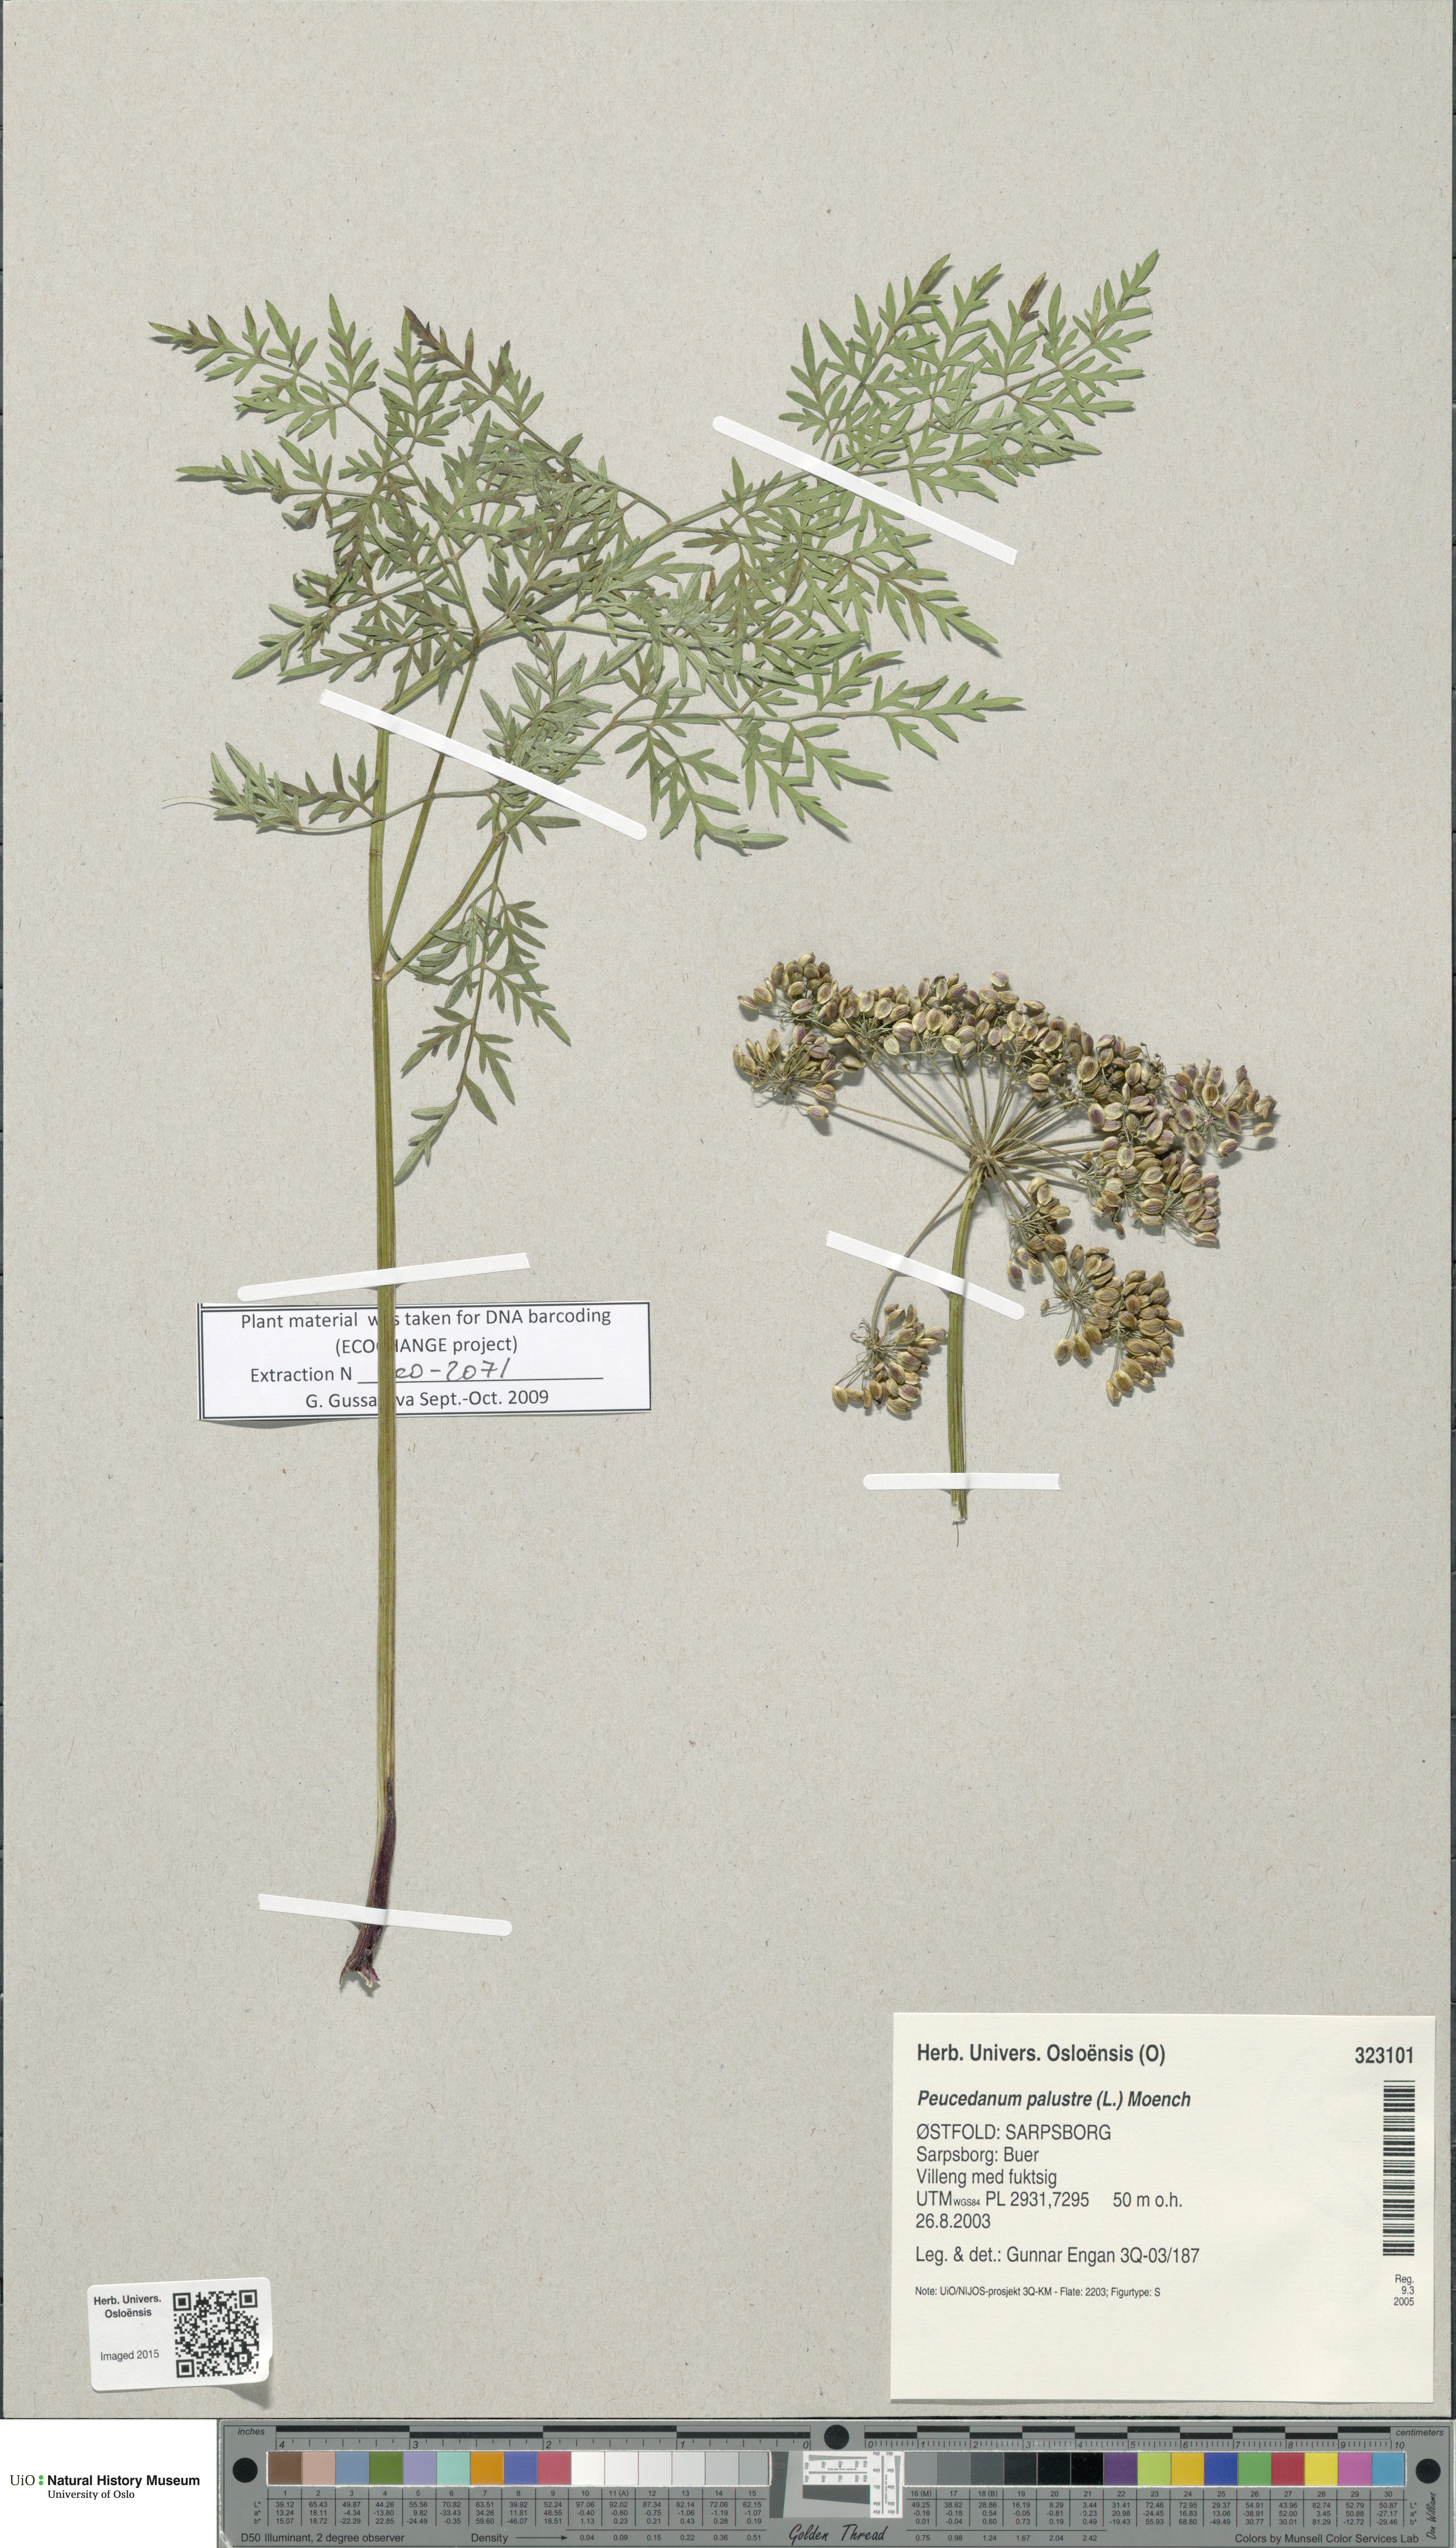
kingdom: Plantae
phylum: Tracheophyta
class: Magnoliopsida
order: Apiales
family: Apiaceae
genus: Thysselinum
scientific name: Thysselinum palustre
